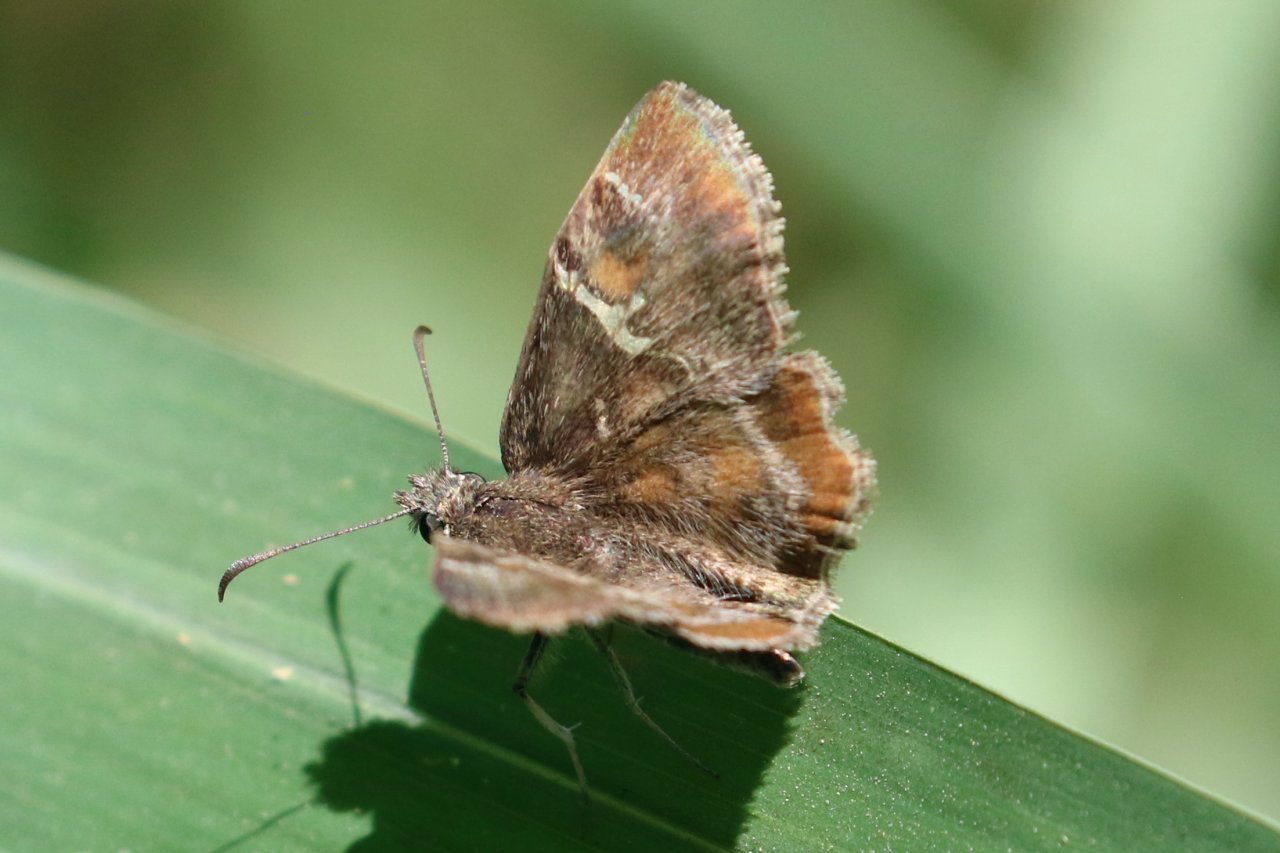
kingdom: Animalia
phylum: Arthropoda
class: Insecta
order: Lepidoptera
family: Hesperiidae
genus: Systasea
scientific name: Systasea pulverulenta
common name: Texas Powdered-Skipper
